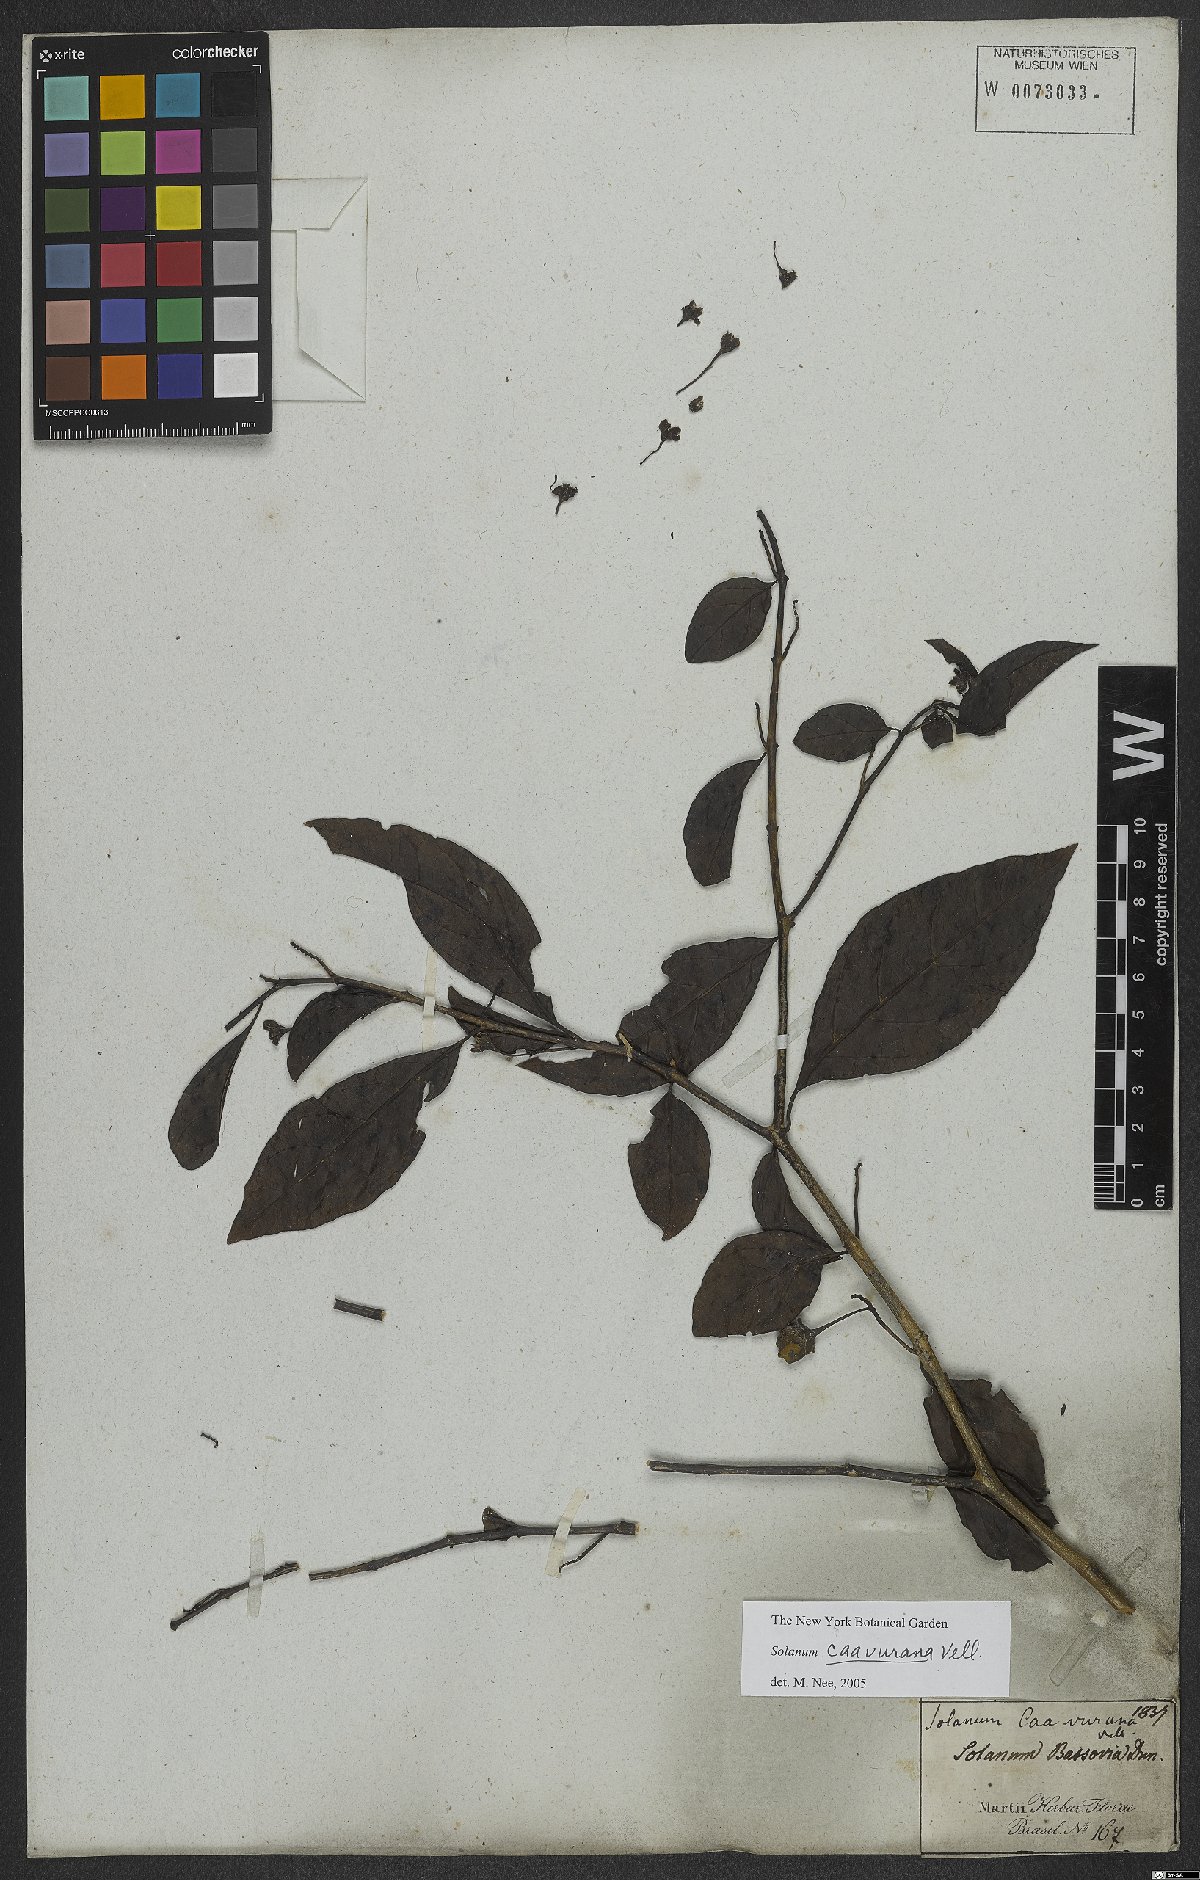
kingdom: Plantae
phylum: Tracheophyta
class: Magnoliopsida
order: Solanales
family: Solanaceae
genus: Solanum
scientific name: Solanum caavurana
